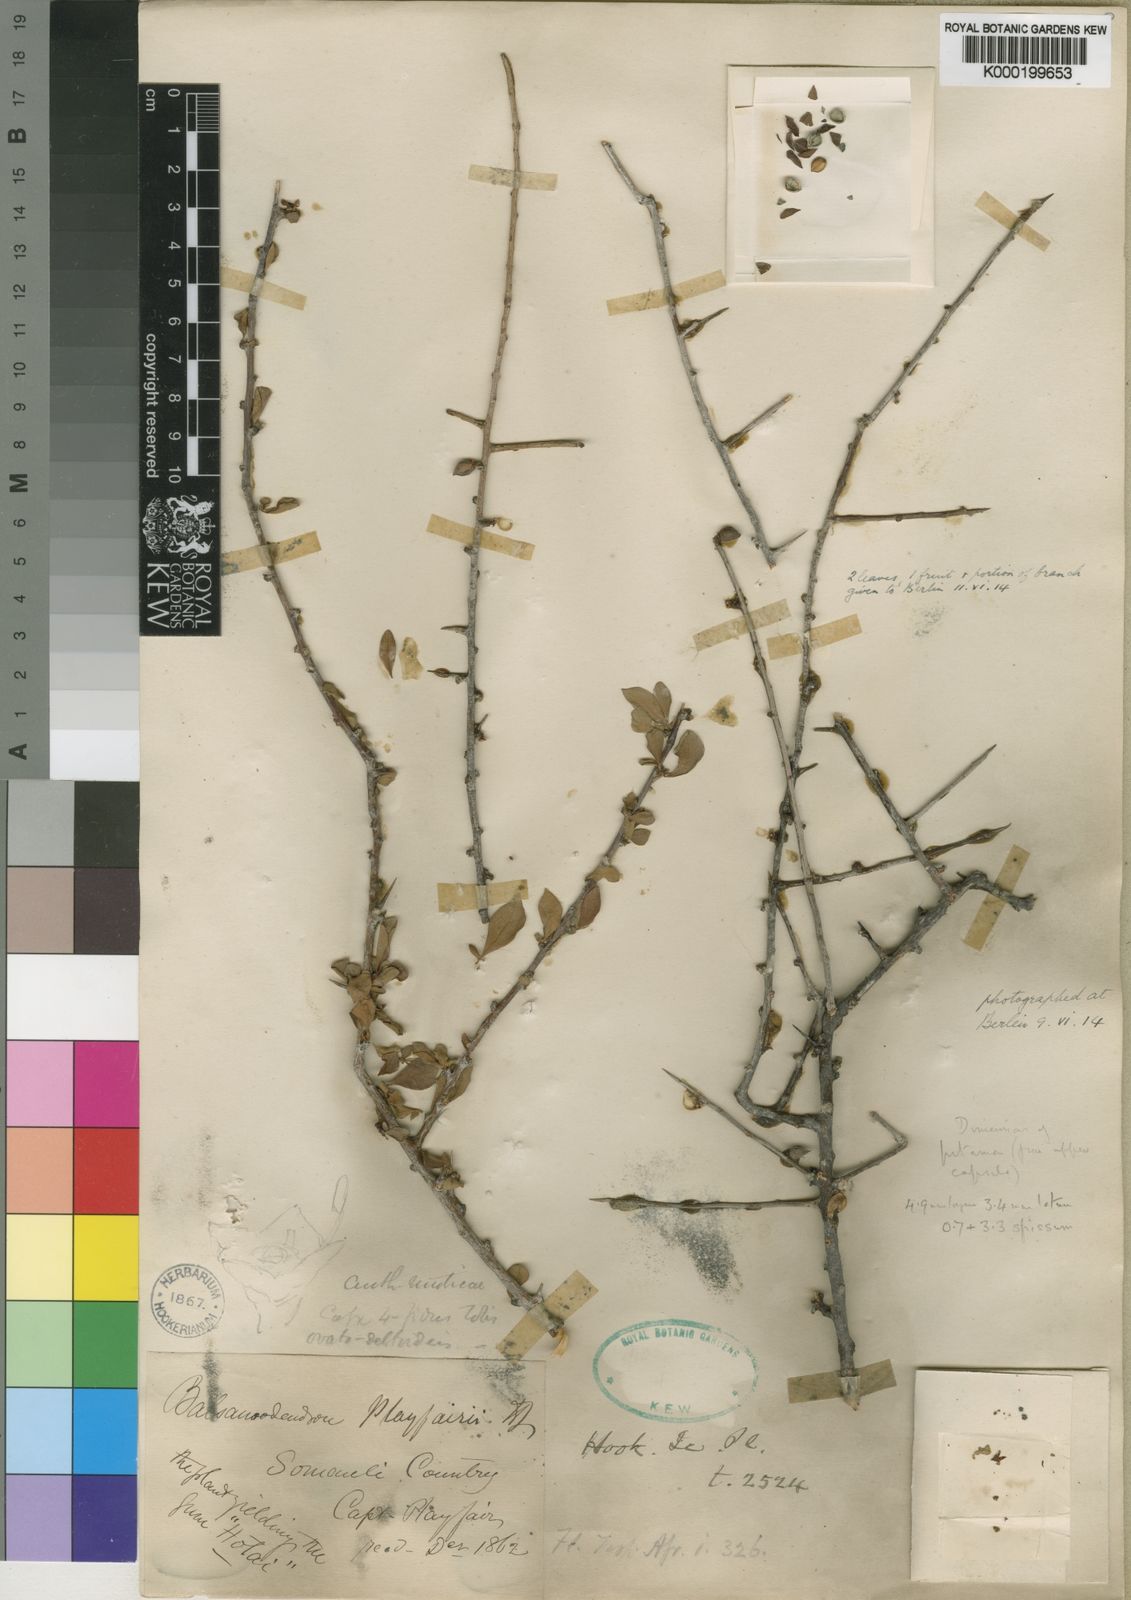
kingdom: Plantae
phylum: Tracheophyta
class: Magnoliopsida
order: Sapindales
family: Burseraceae
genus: Commiphora
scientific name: Commiphora playfairii
